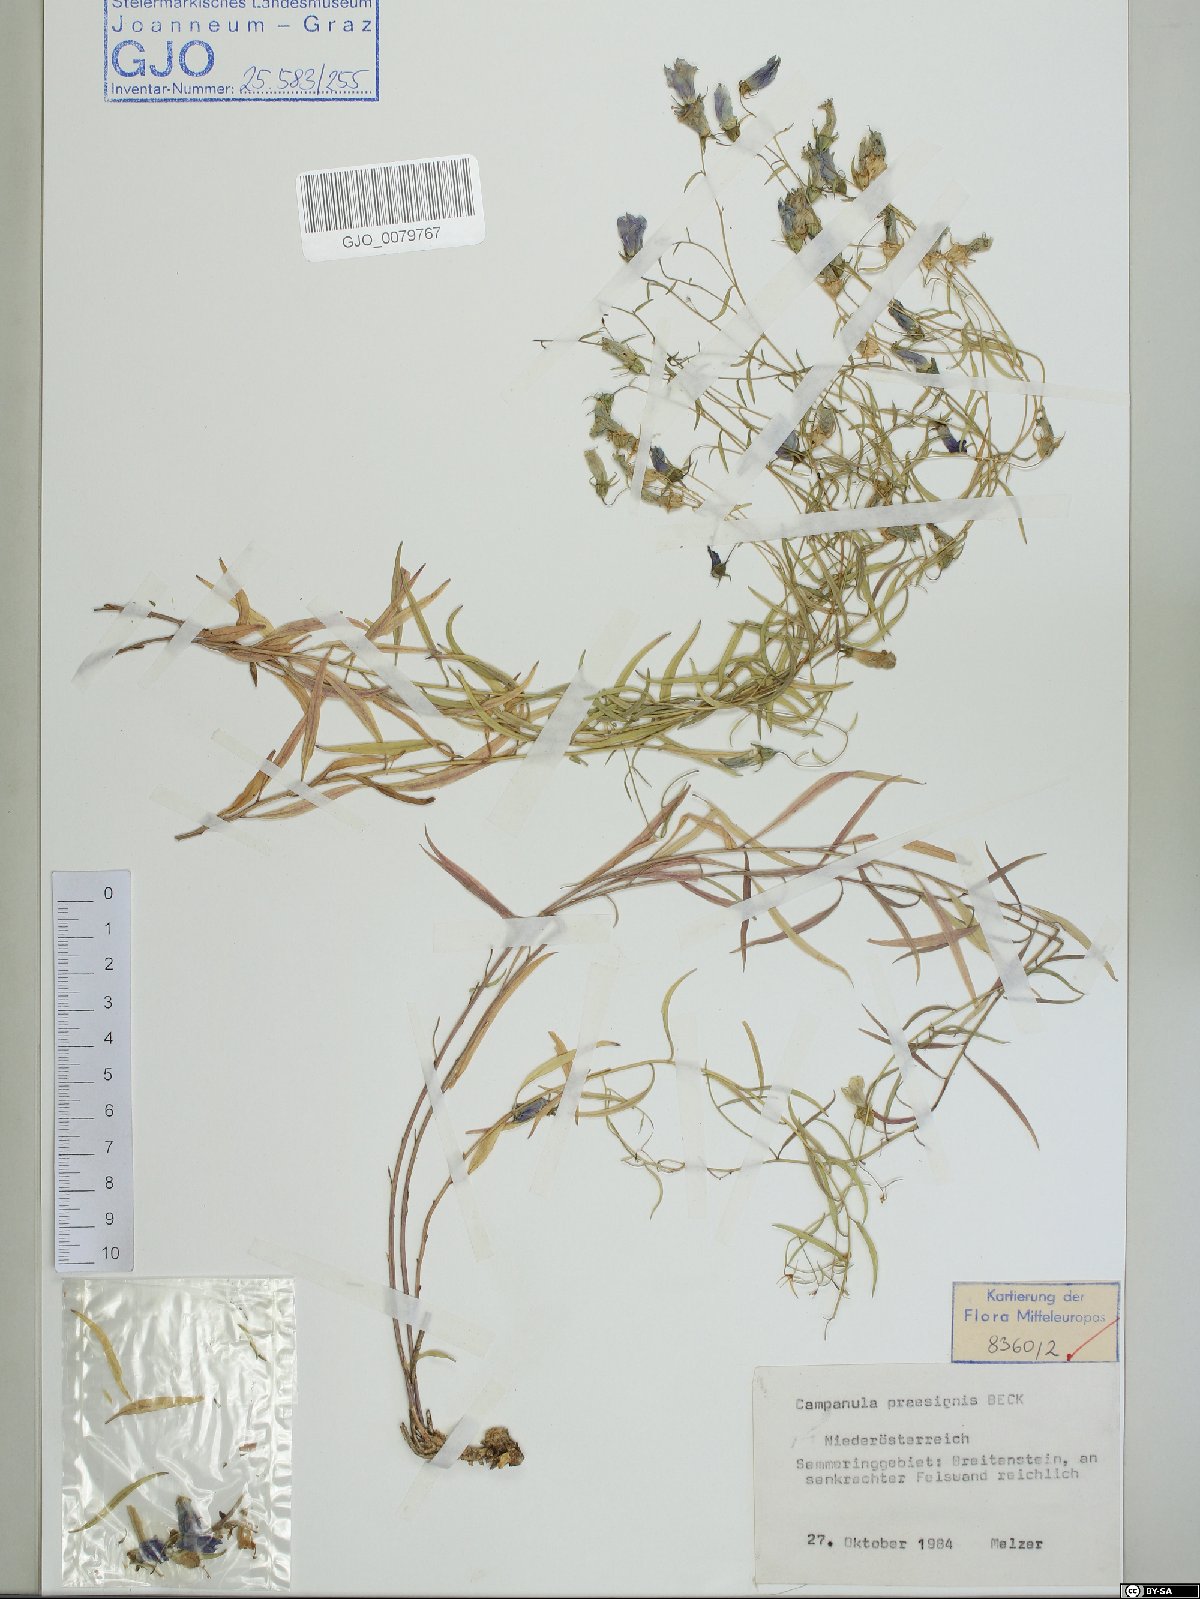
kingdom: Plantae
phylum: Tracheophyta
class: Magnoliopsida
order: Asterales
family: Campanulaceae
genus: Campanula
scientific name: Campanula praesignis
